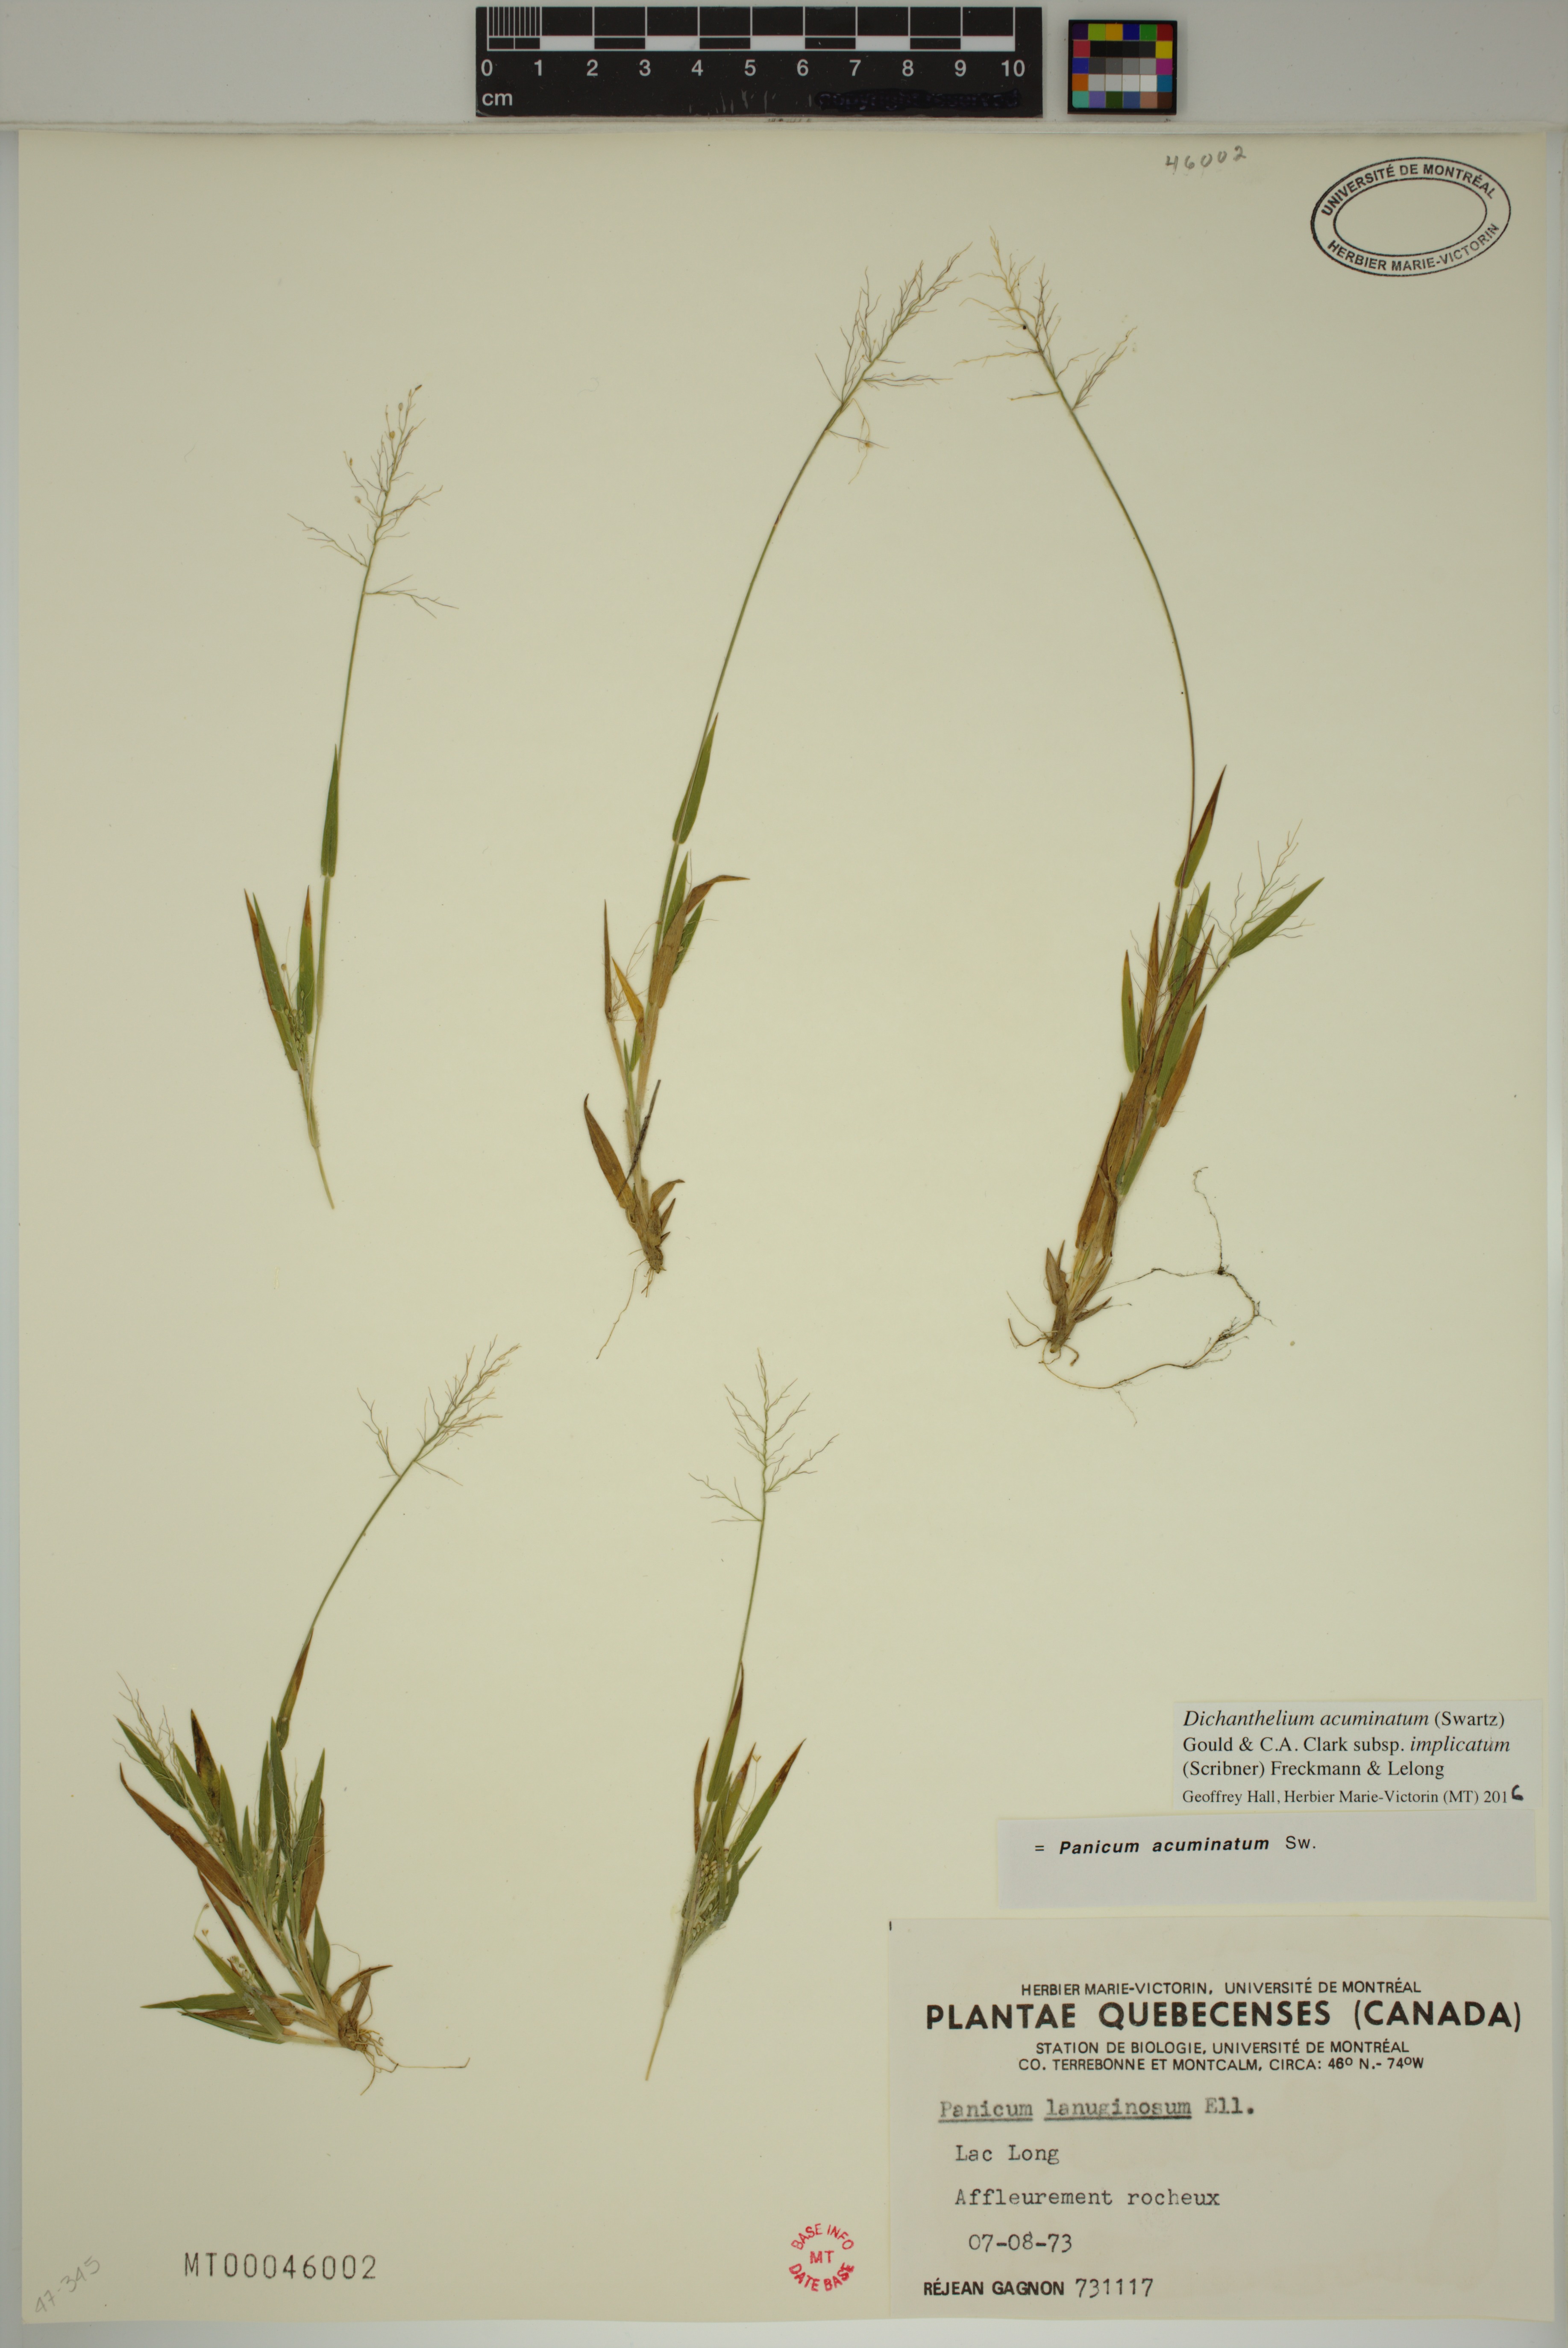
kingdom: Plantae
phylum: Tracheophyta
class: Liliopsida
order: Poales
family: Poaceae
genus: Dichanthelium
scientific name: Dichanthelium implicatum
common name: Slender-stemmed panicgrass
